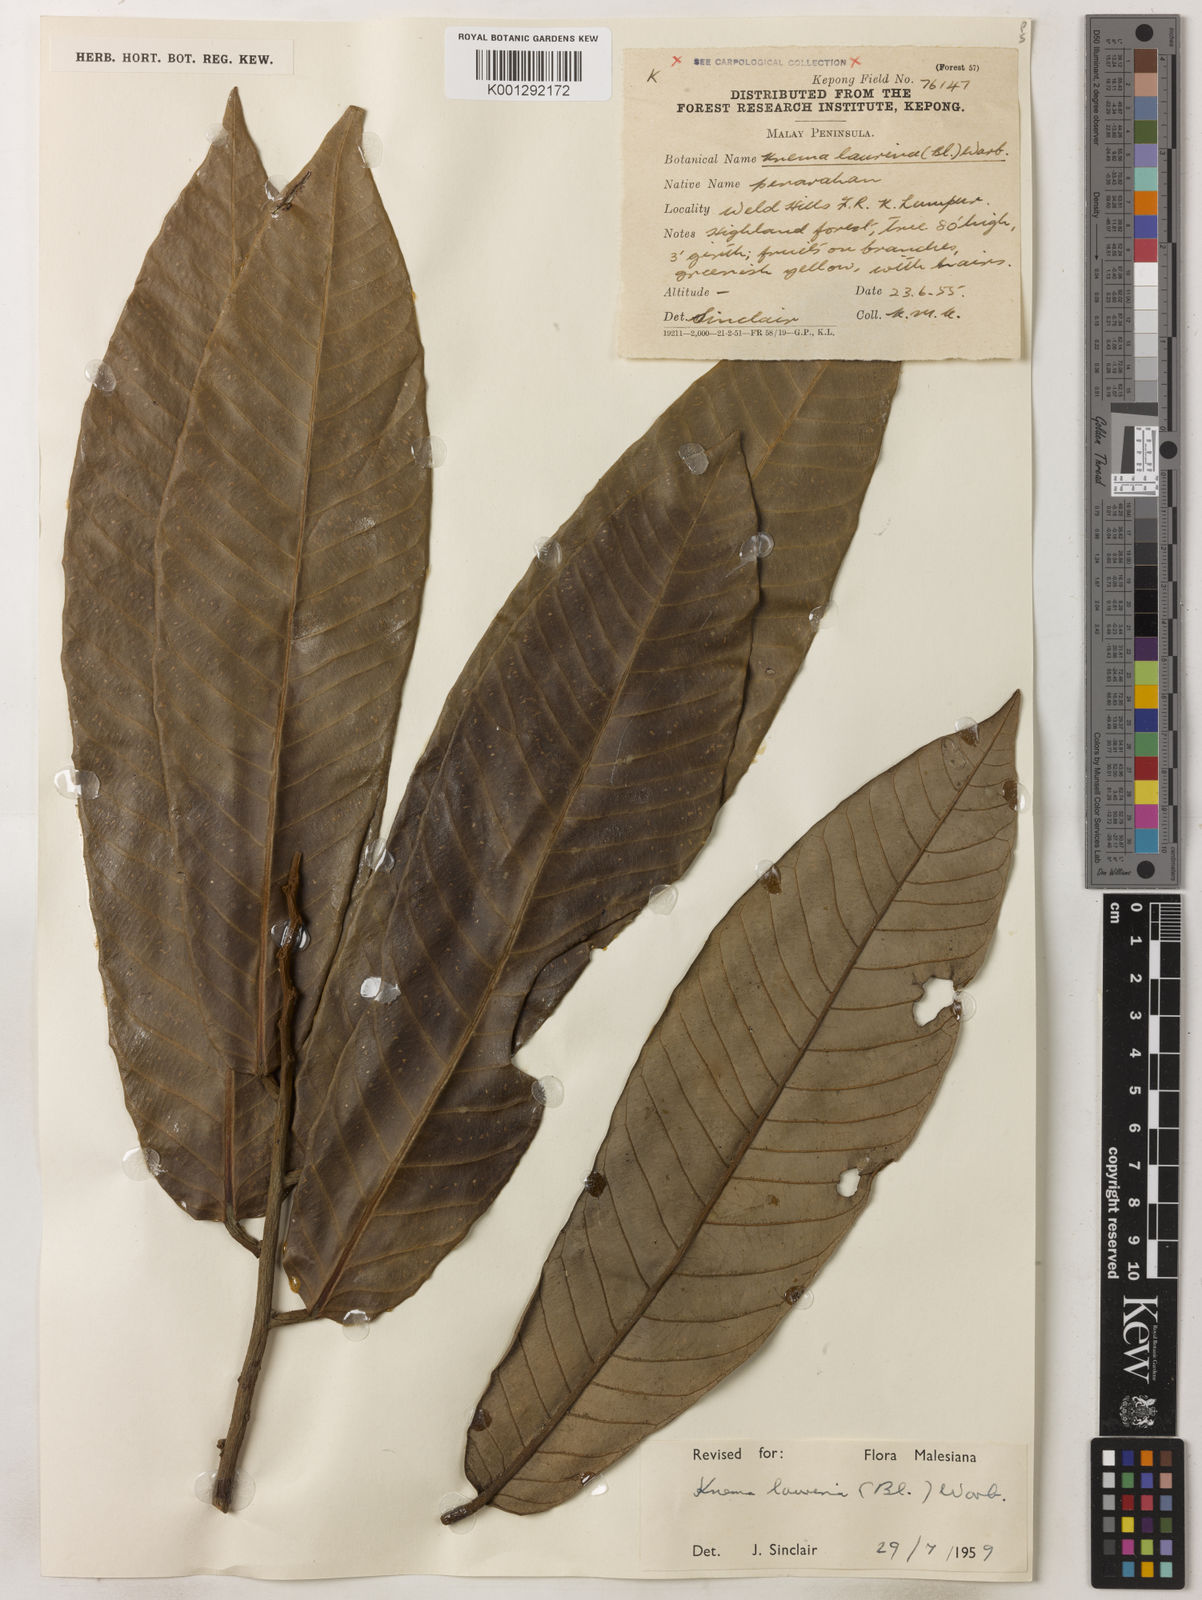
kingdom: Plantae
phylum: Tracheophyta
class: Magnoliopsida
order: Magnoliales
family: Myristicaceae
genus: Knema
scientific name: Knema laurina
